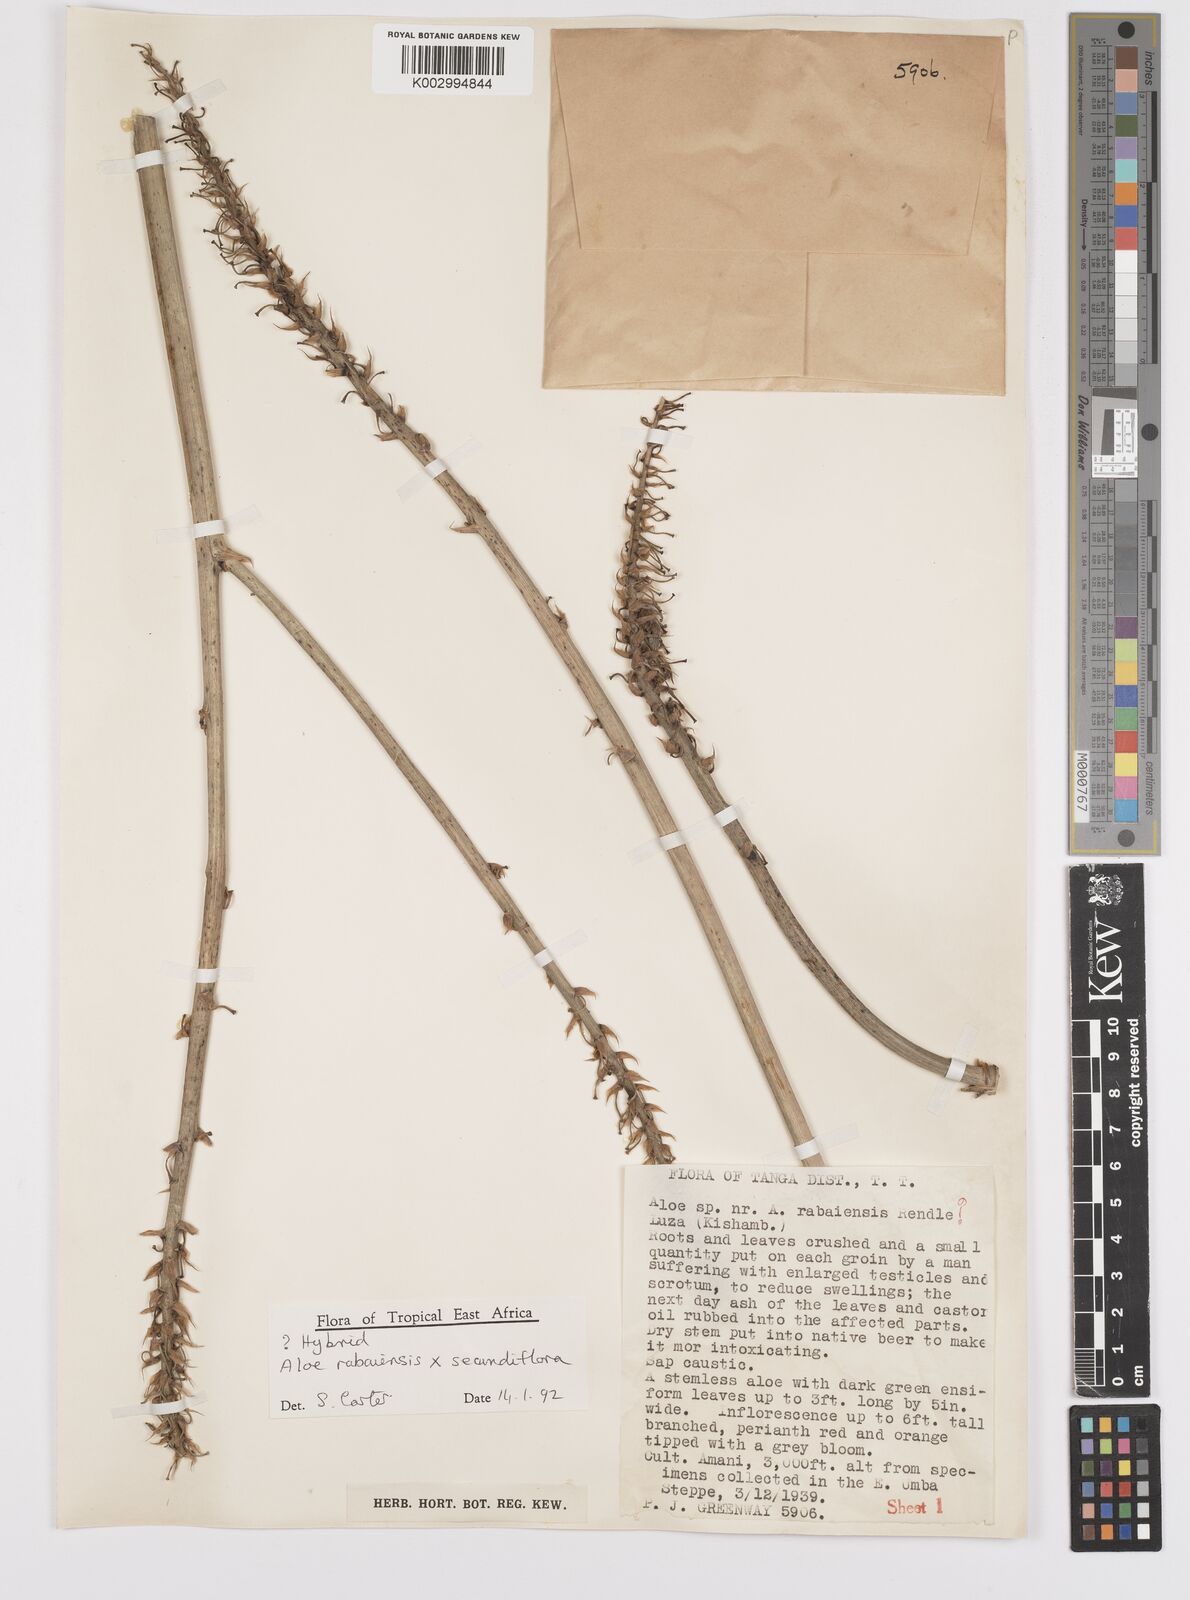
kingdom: Plantae
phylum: Tracheophyta
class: Liliopsida
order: Asparagales
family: Asphodelaceae
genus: Aloe
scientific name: Aloe rabaiensis
